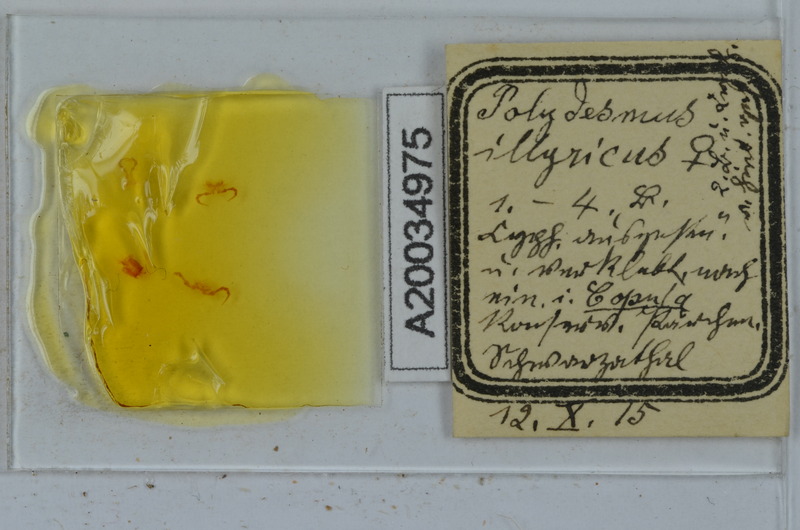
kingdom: Animalia
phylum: Arthropoda
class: Diplopoda
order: Polydesmida
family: Polydesmidae
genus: Polydesmus
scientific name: Polydesmus complanatus
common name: Flat-backed millipede
